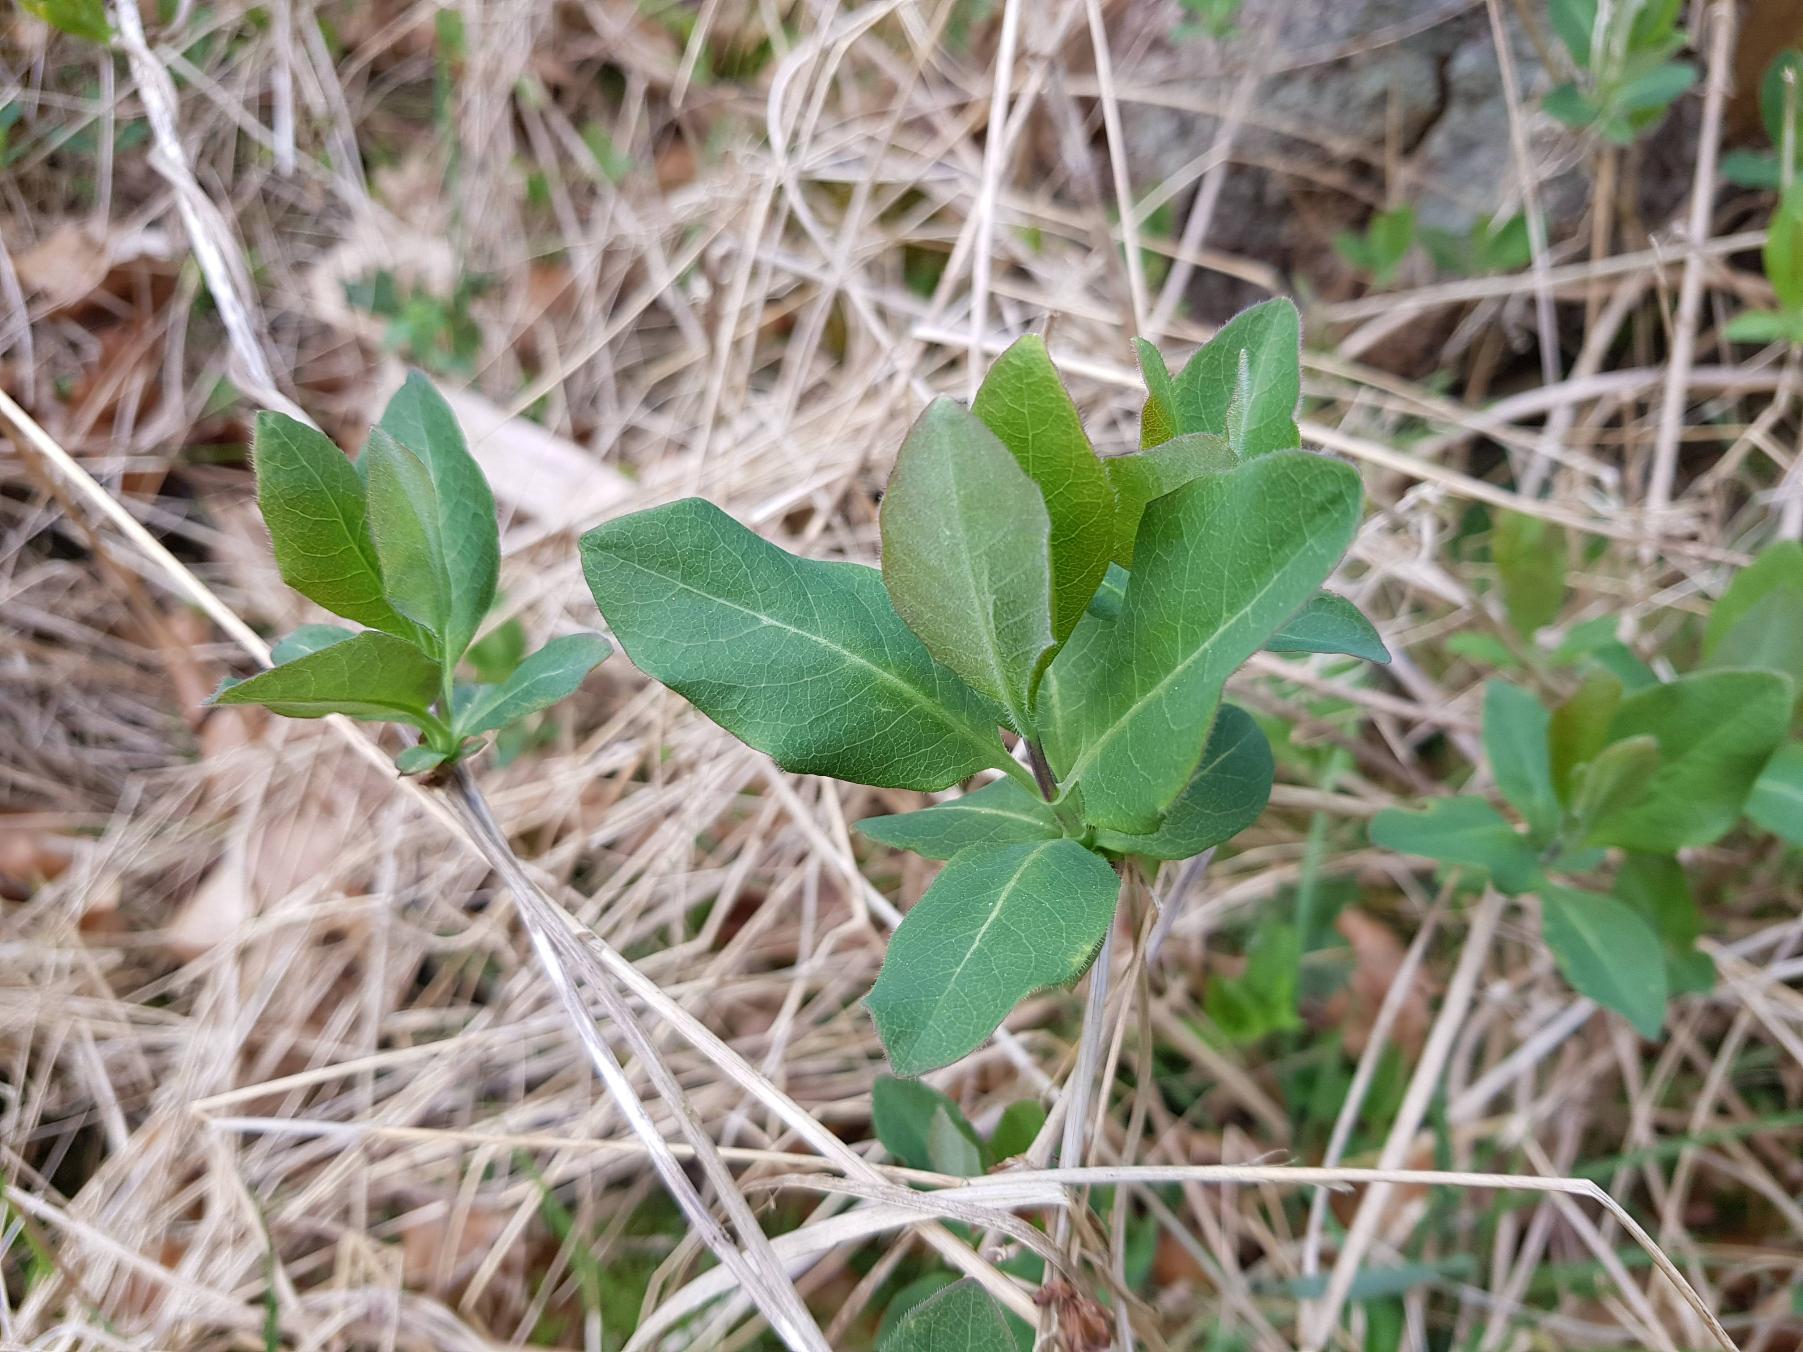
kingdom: Plantae
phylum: Tracheophyta
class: Magnoliopsida
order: Dipsacales
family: Caprifoliaceae
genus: Lonicera
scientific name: Lonicera periclymenum
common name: Almindelig gedeblad
